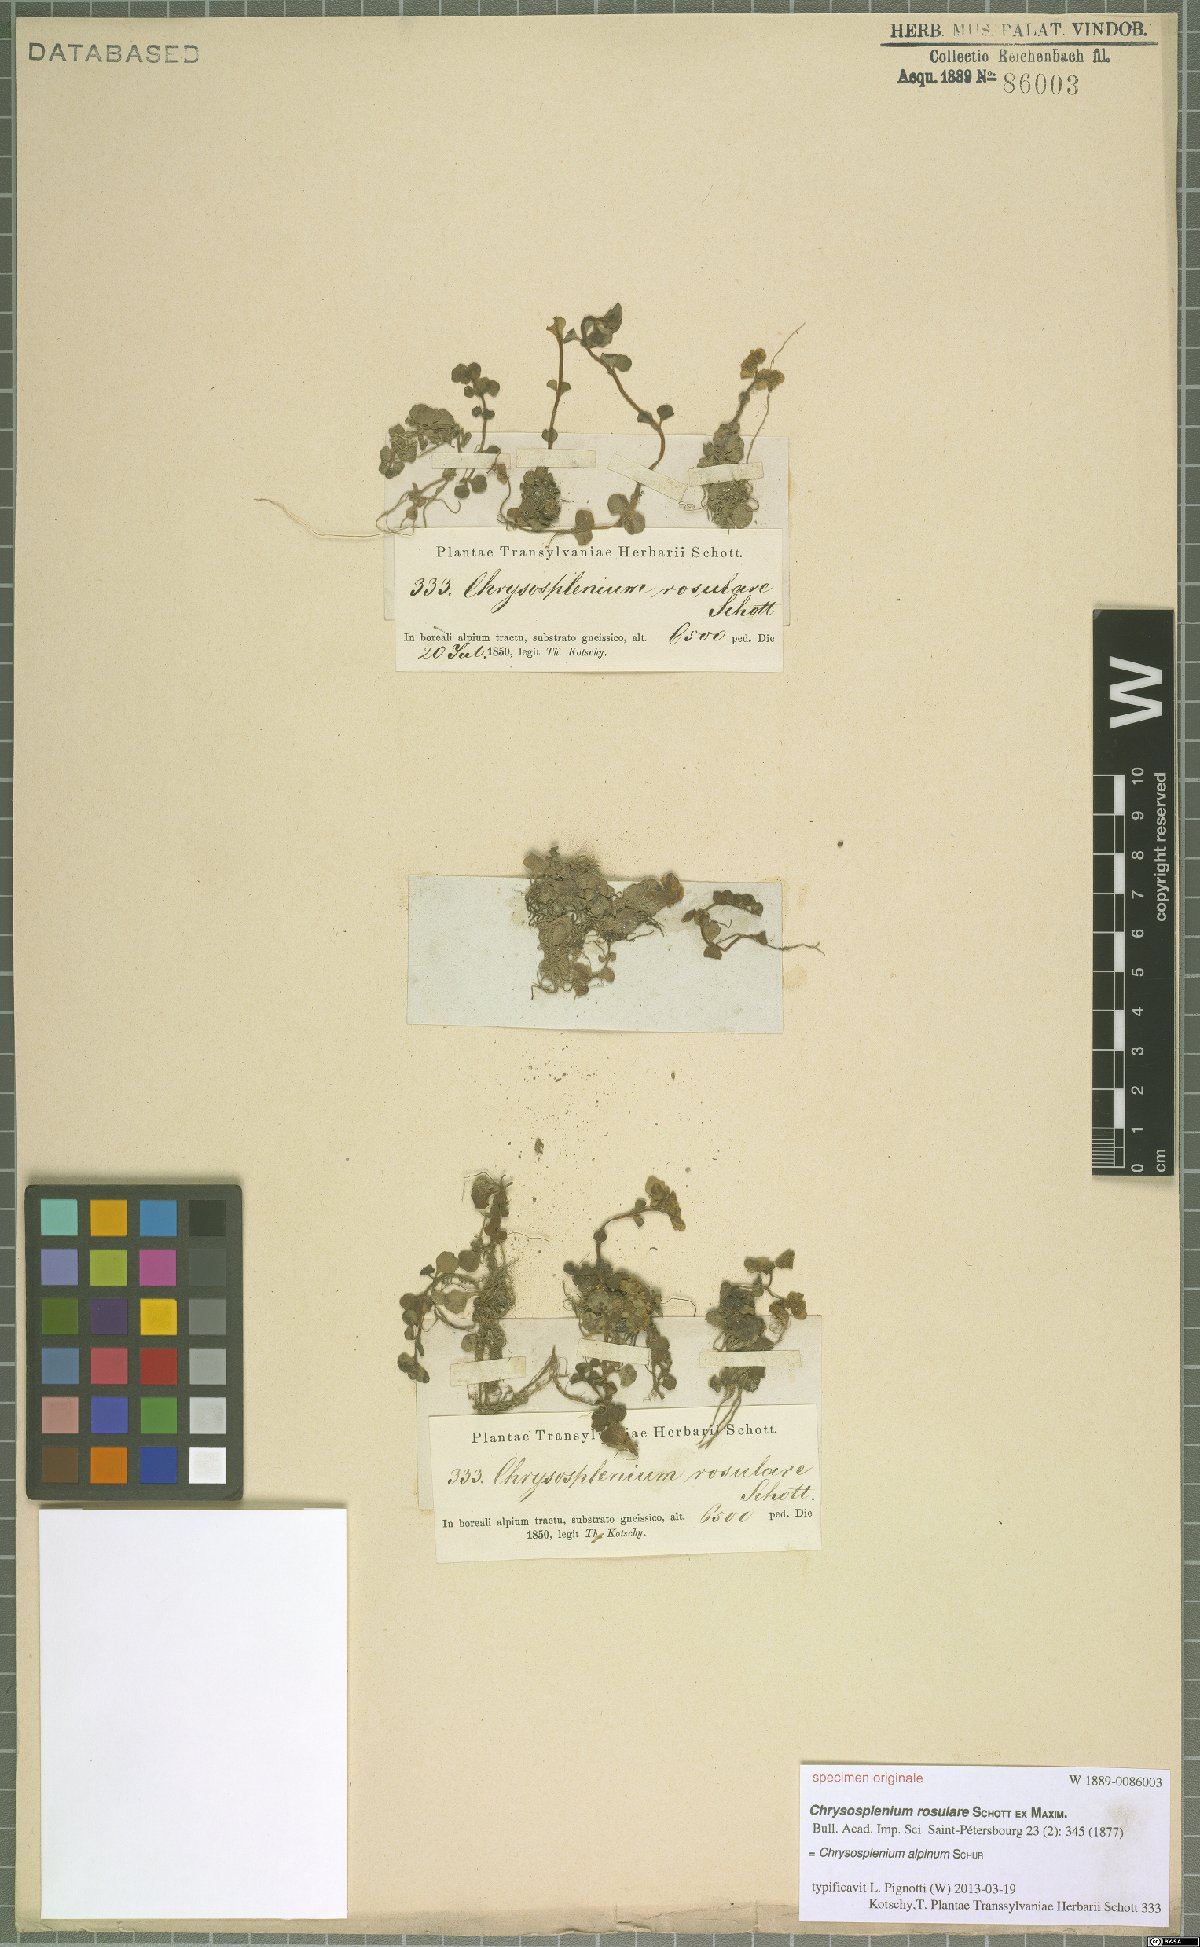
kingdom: Plantae
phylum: Tracheophyta
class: Magnoliopsida
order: Saxifragales
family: Saxifragaceae
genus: Chrysosplenium
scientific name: Chrysosplenium alpinum
